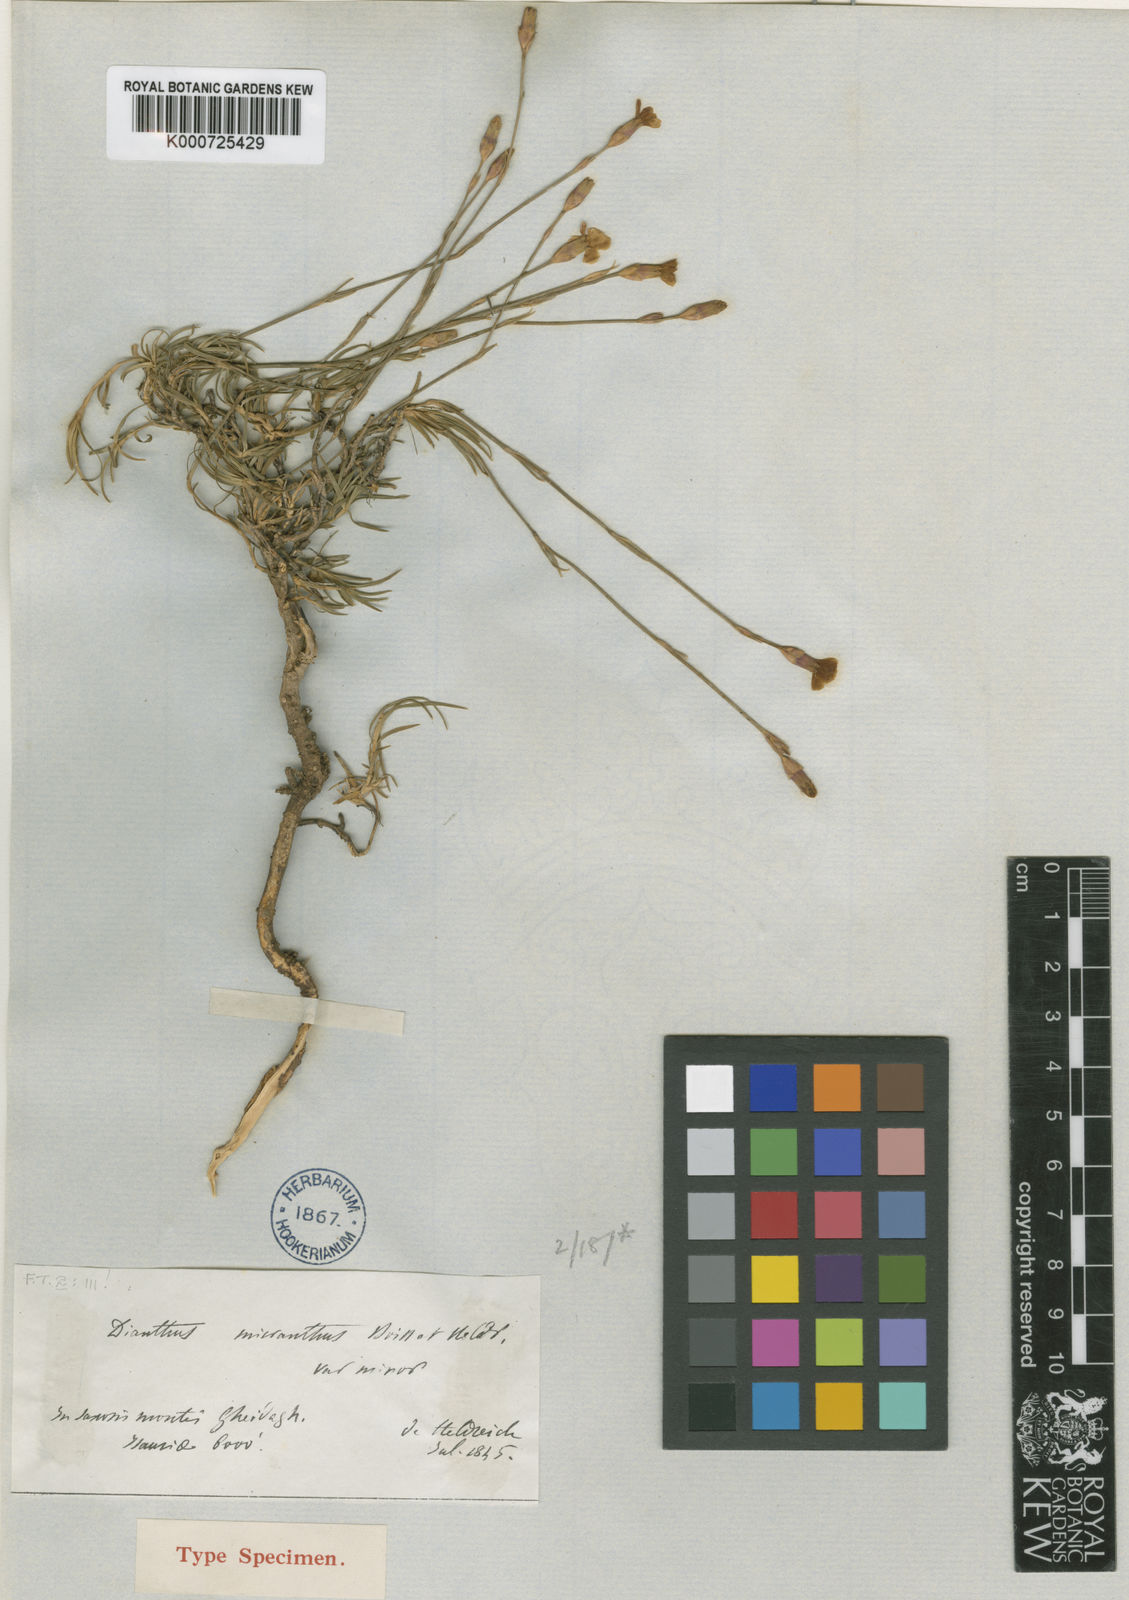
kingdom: Plantae
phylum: Tracheophyta
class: Magnoliopsida
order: Caryophyllales
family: Caryophyllaceae
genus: Dianthus
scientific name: Dianthus micranthus
